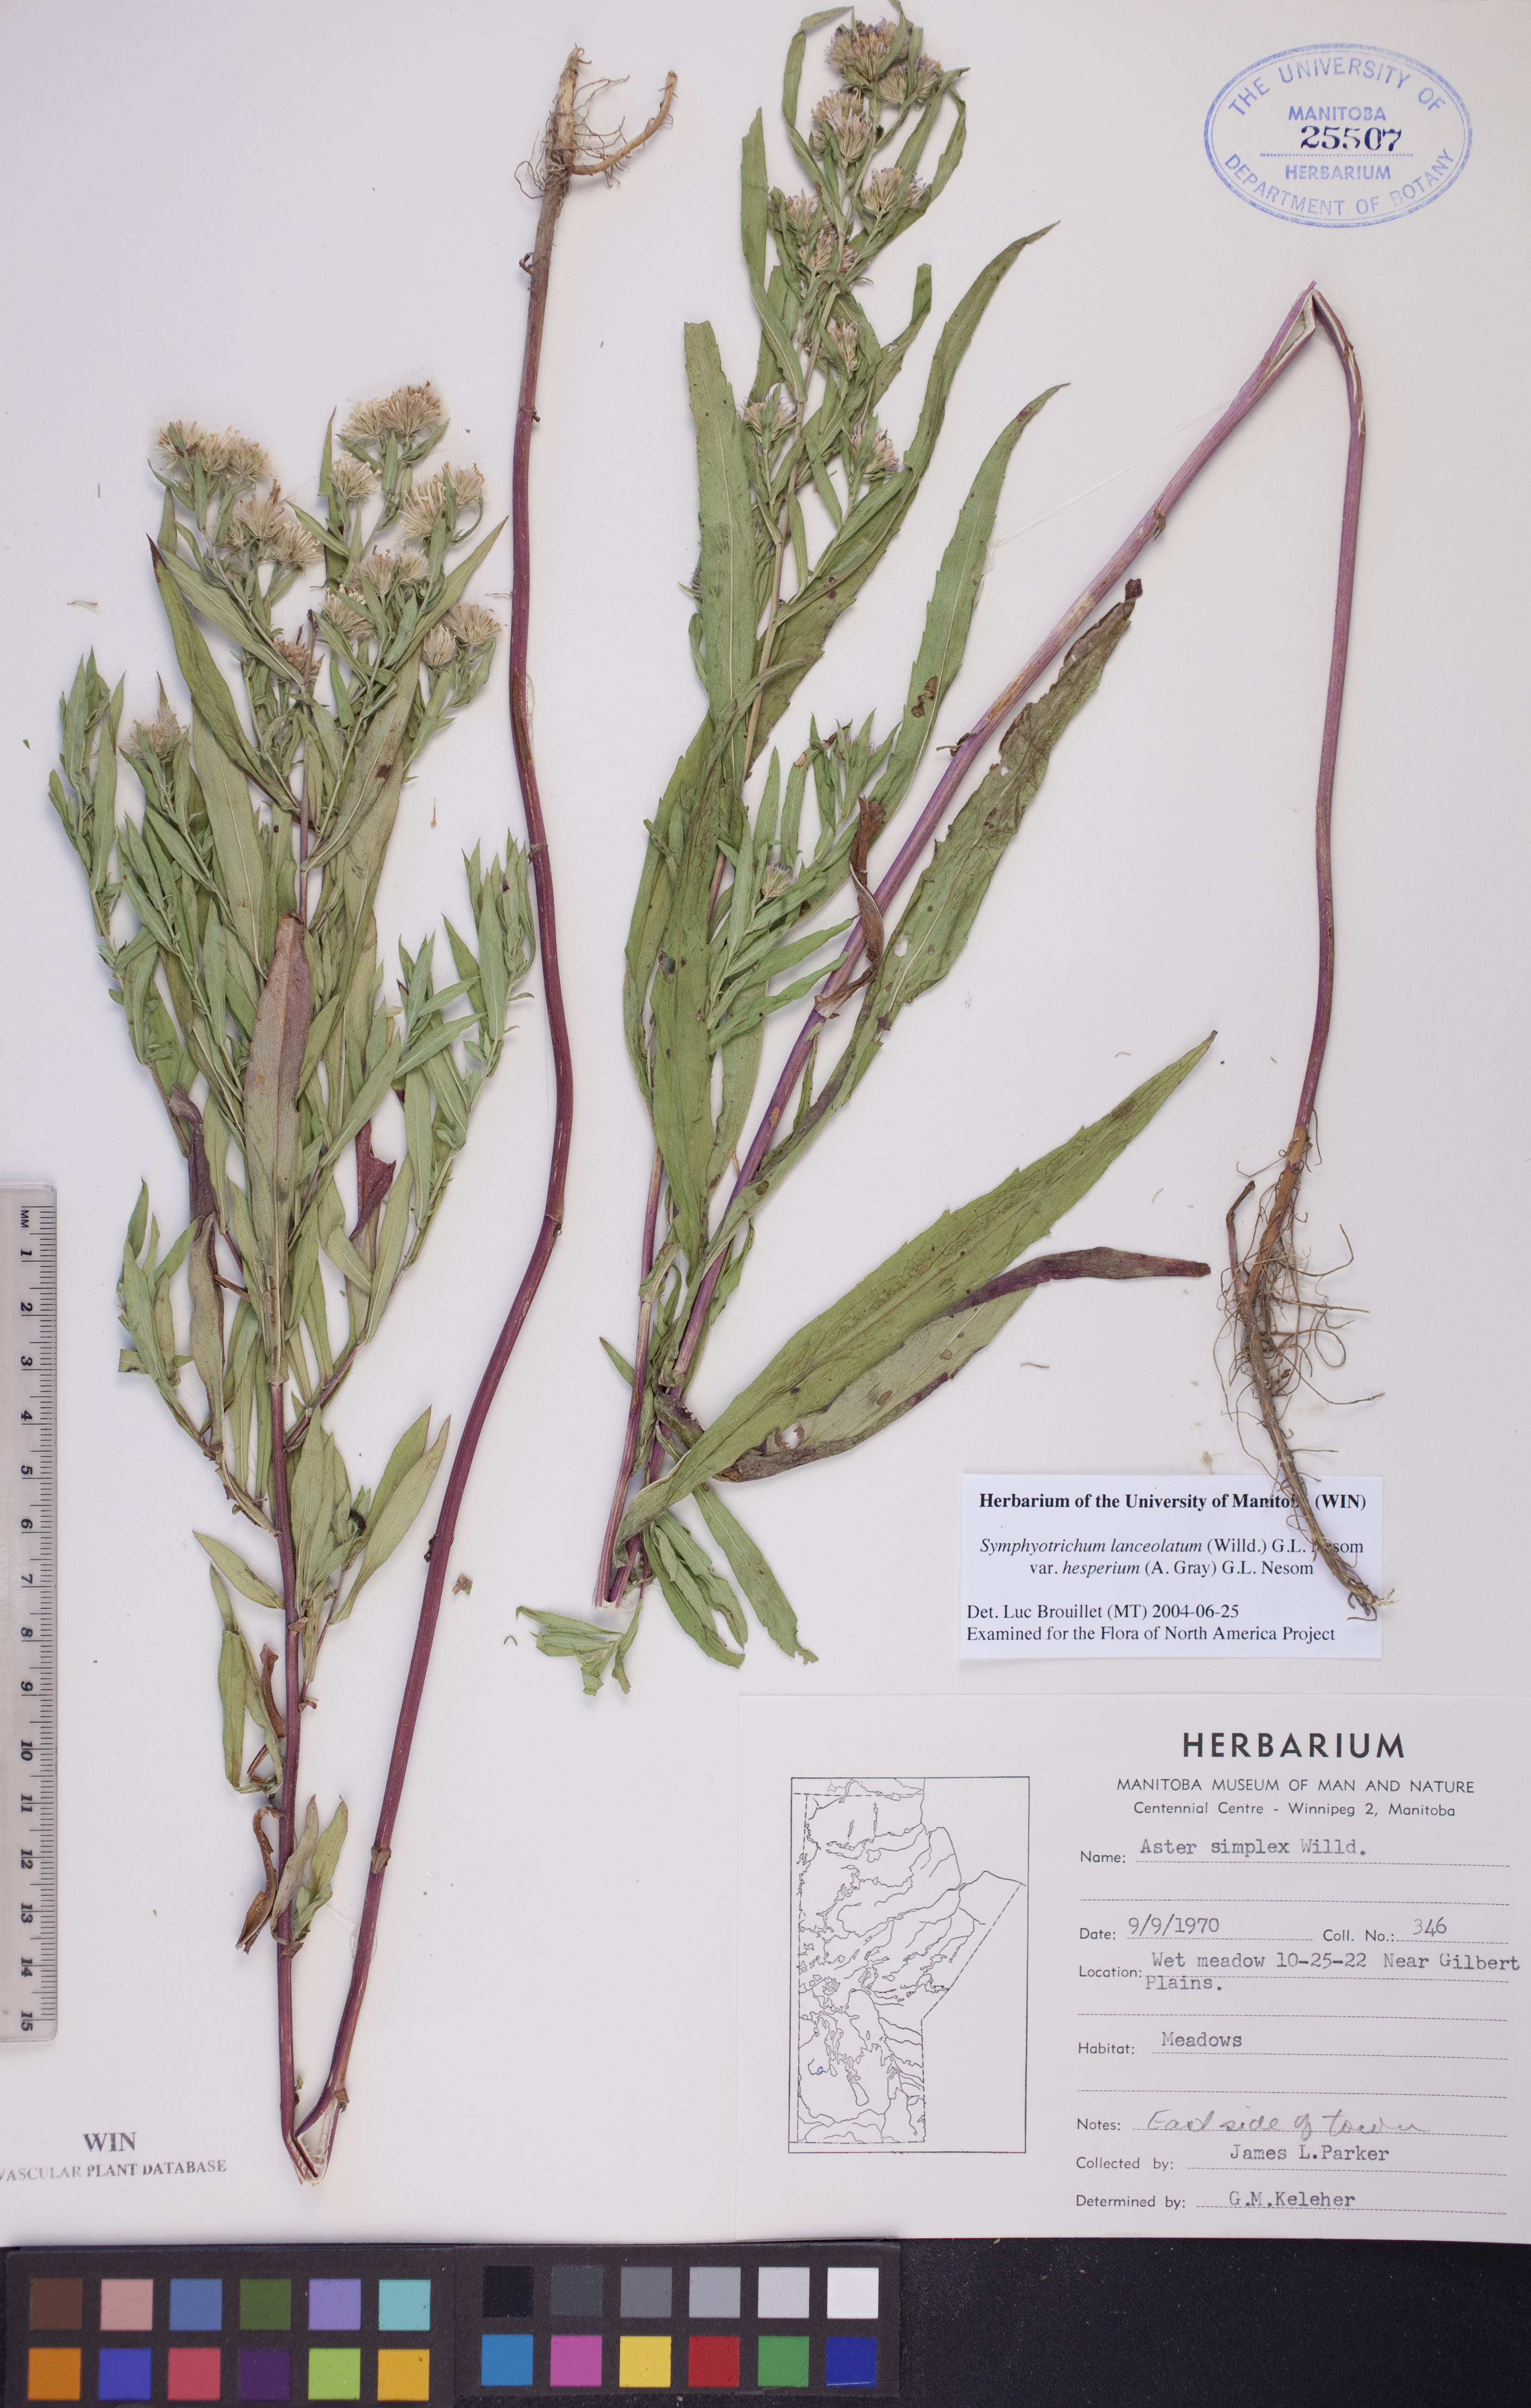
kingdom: Plantae
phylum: Tracheophyta
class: Magnoliopsida
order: Asterales
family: Asteraceae
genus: Symphyotrichum
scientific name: Symphyotrichum lanceolatum
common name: Panicled aster
